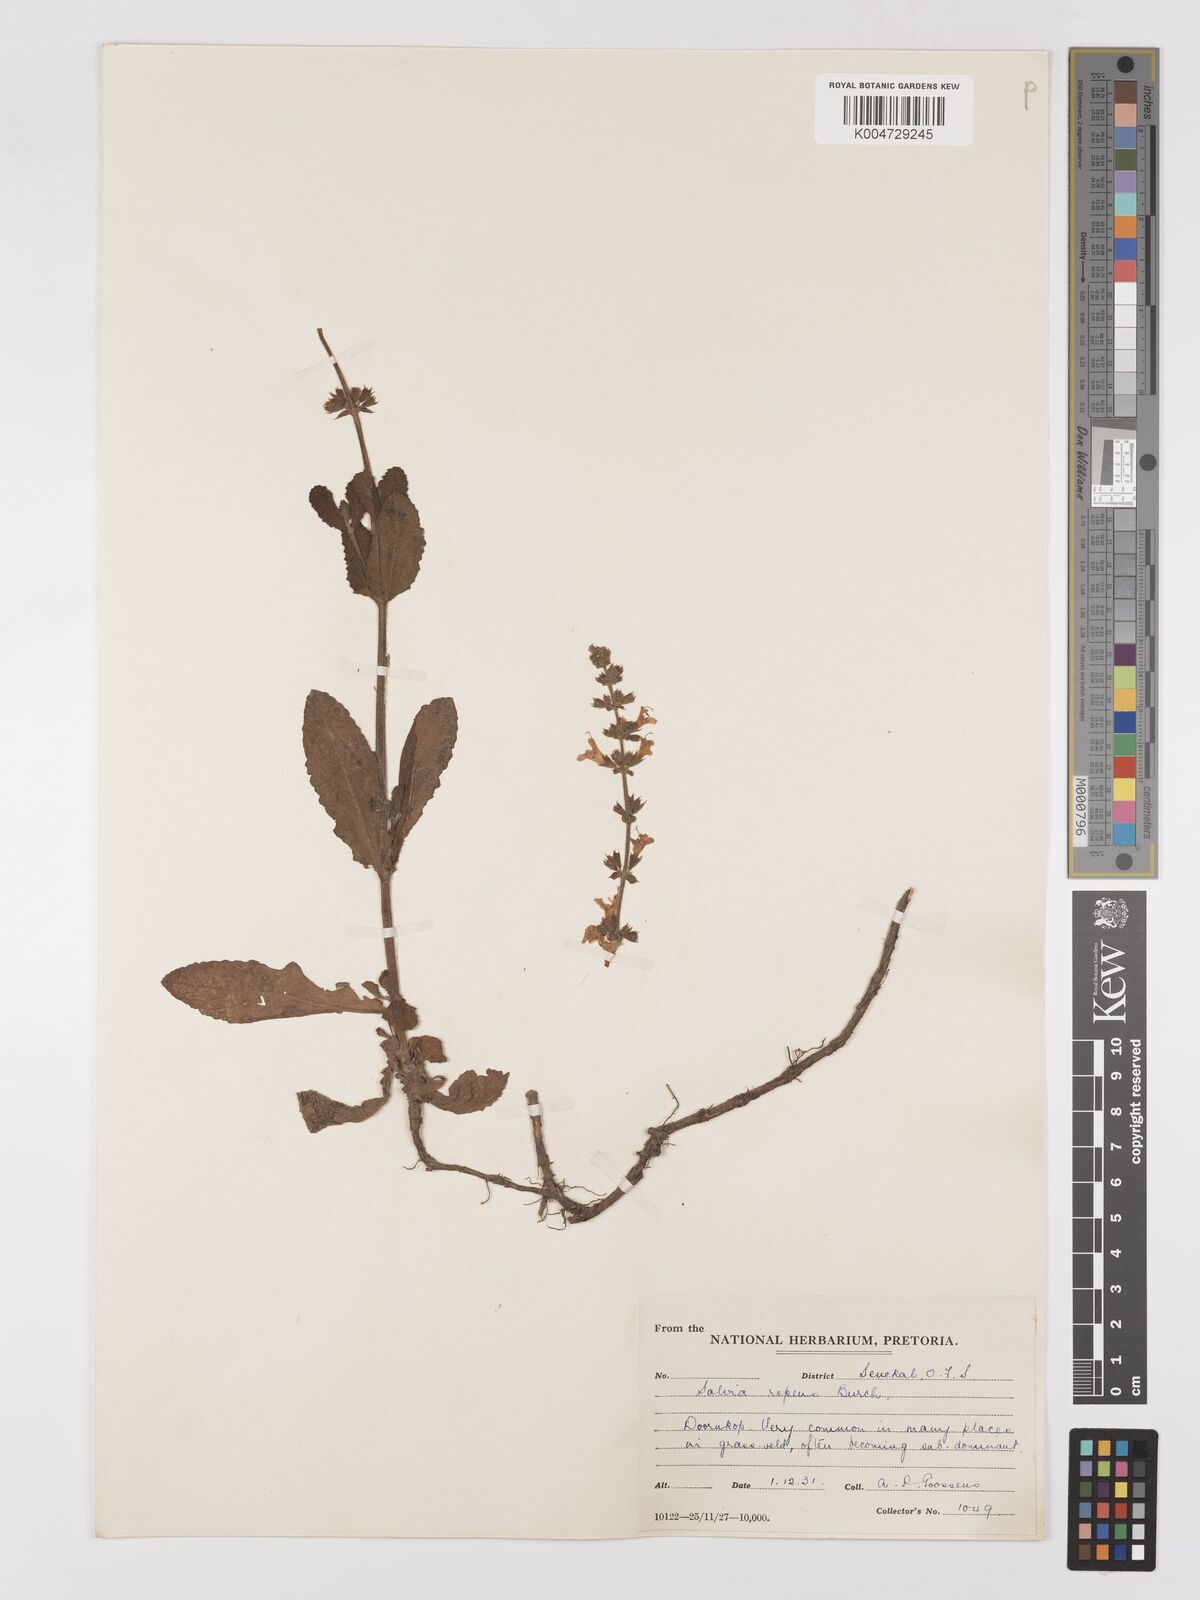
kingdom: Plantae
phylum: Tracheophyta
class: Magnoliopsida
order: Lamiales
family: Lamiaceae
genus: Salvia
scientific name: Salvia repens
